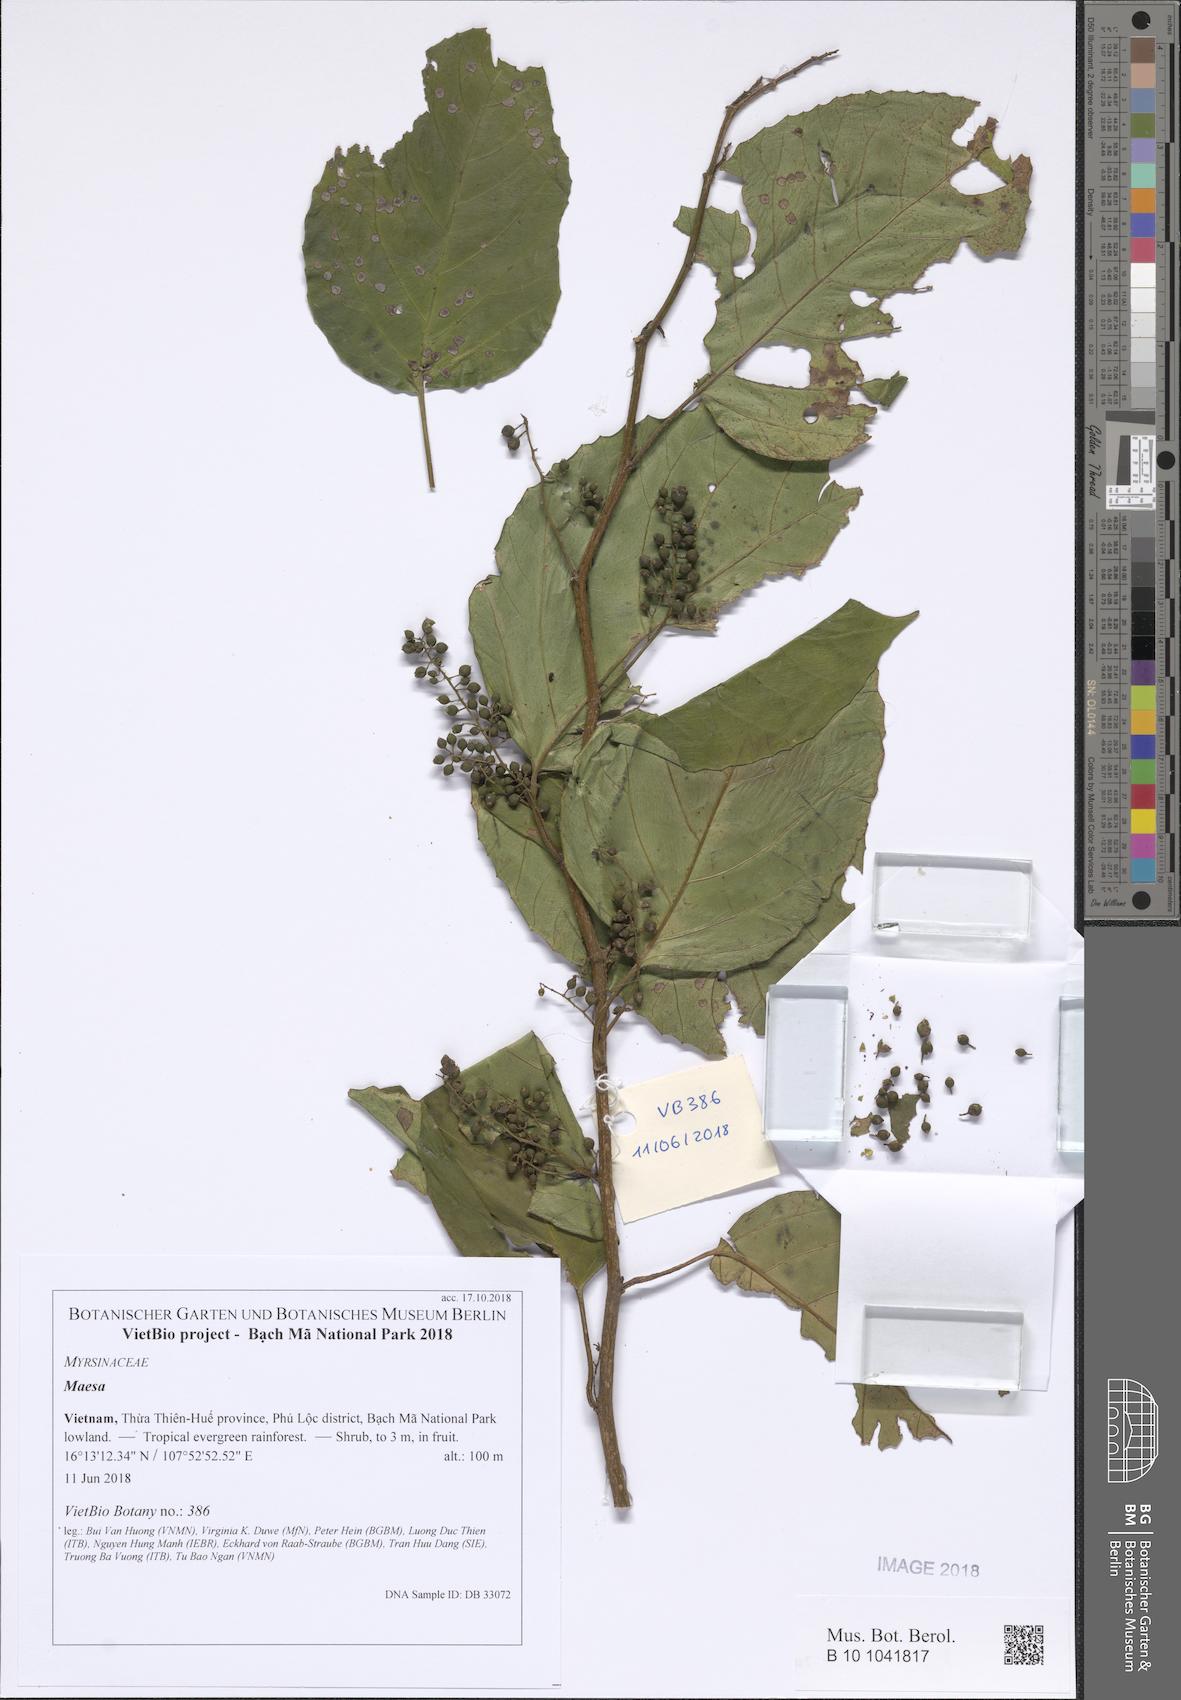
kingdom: Plantae
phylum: Tracheophyta
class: Magnoliopsida
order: Ericales
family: Primulaceae
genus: Maesa
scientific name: Maesa perlaria
